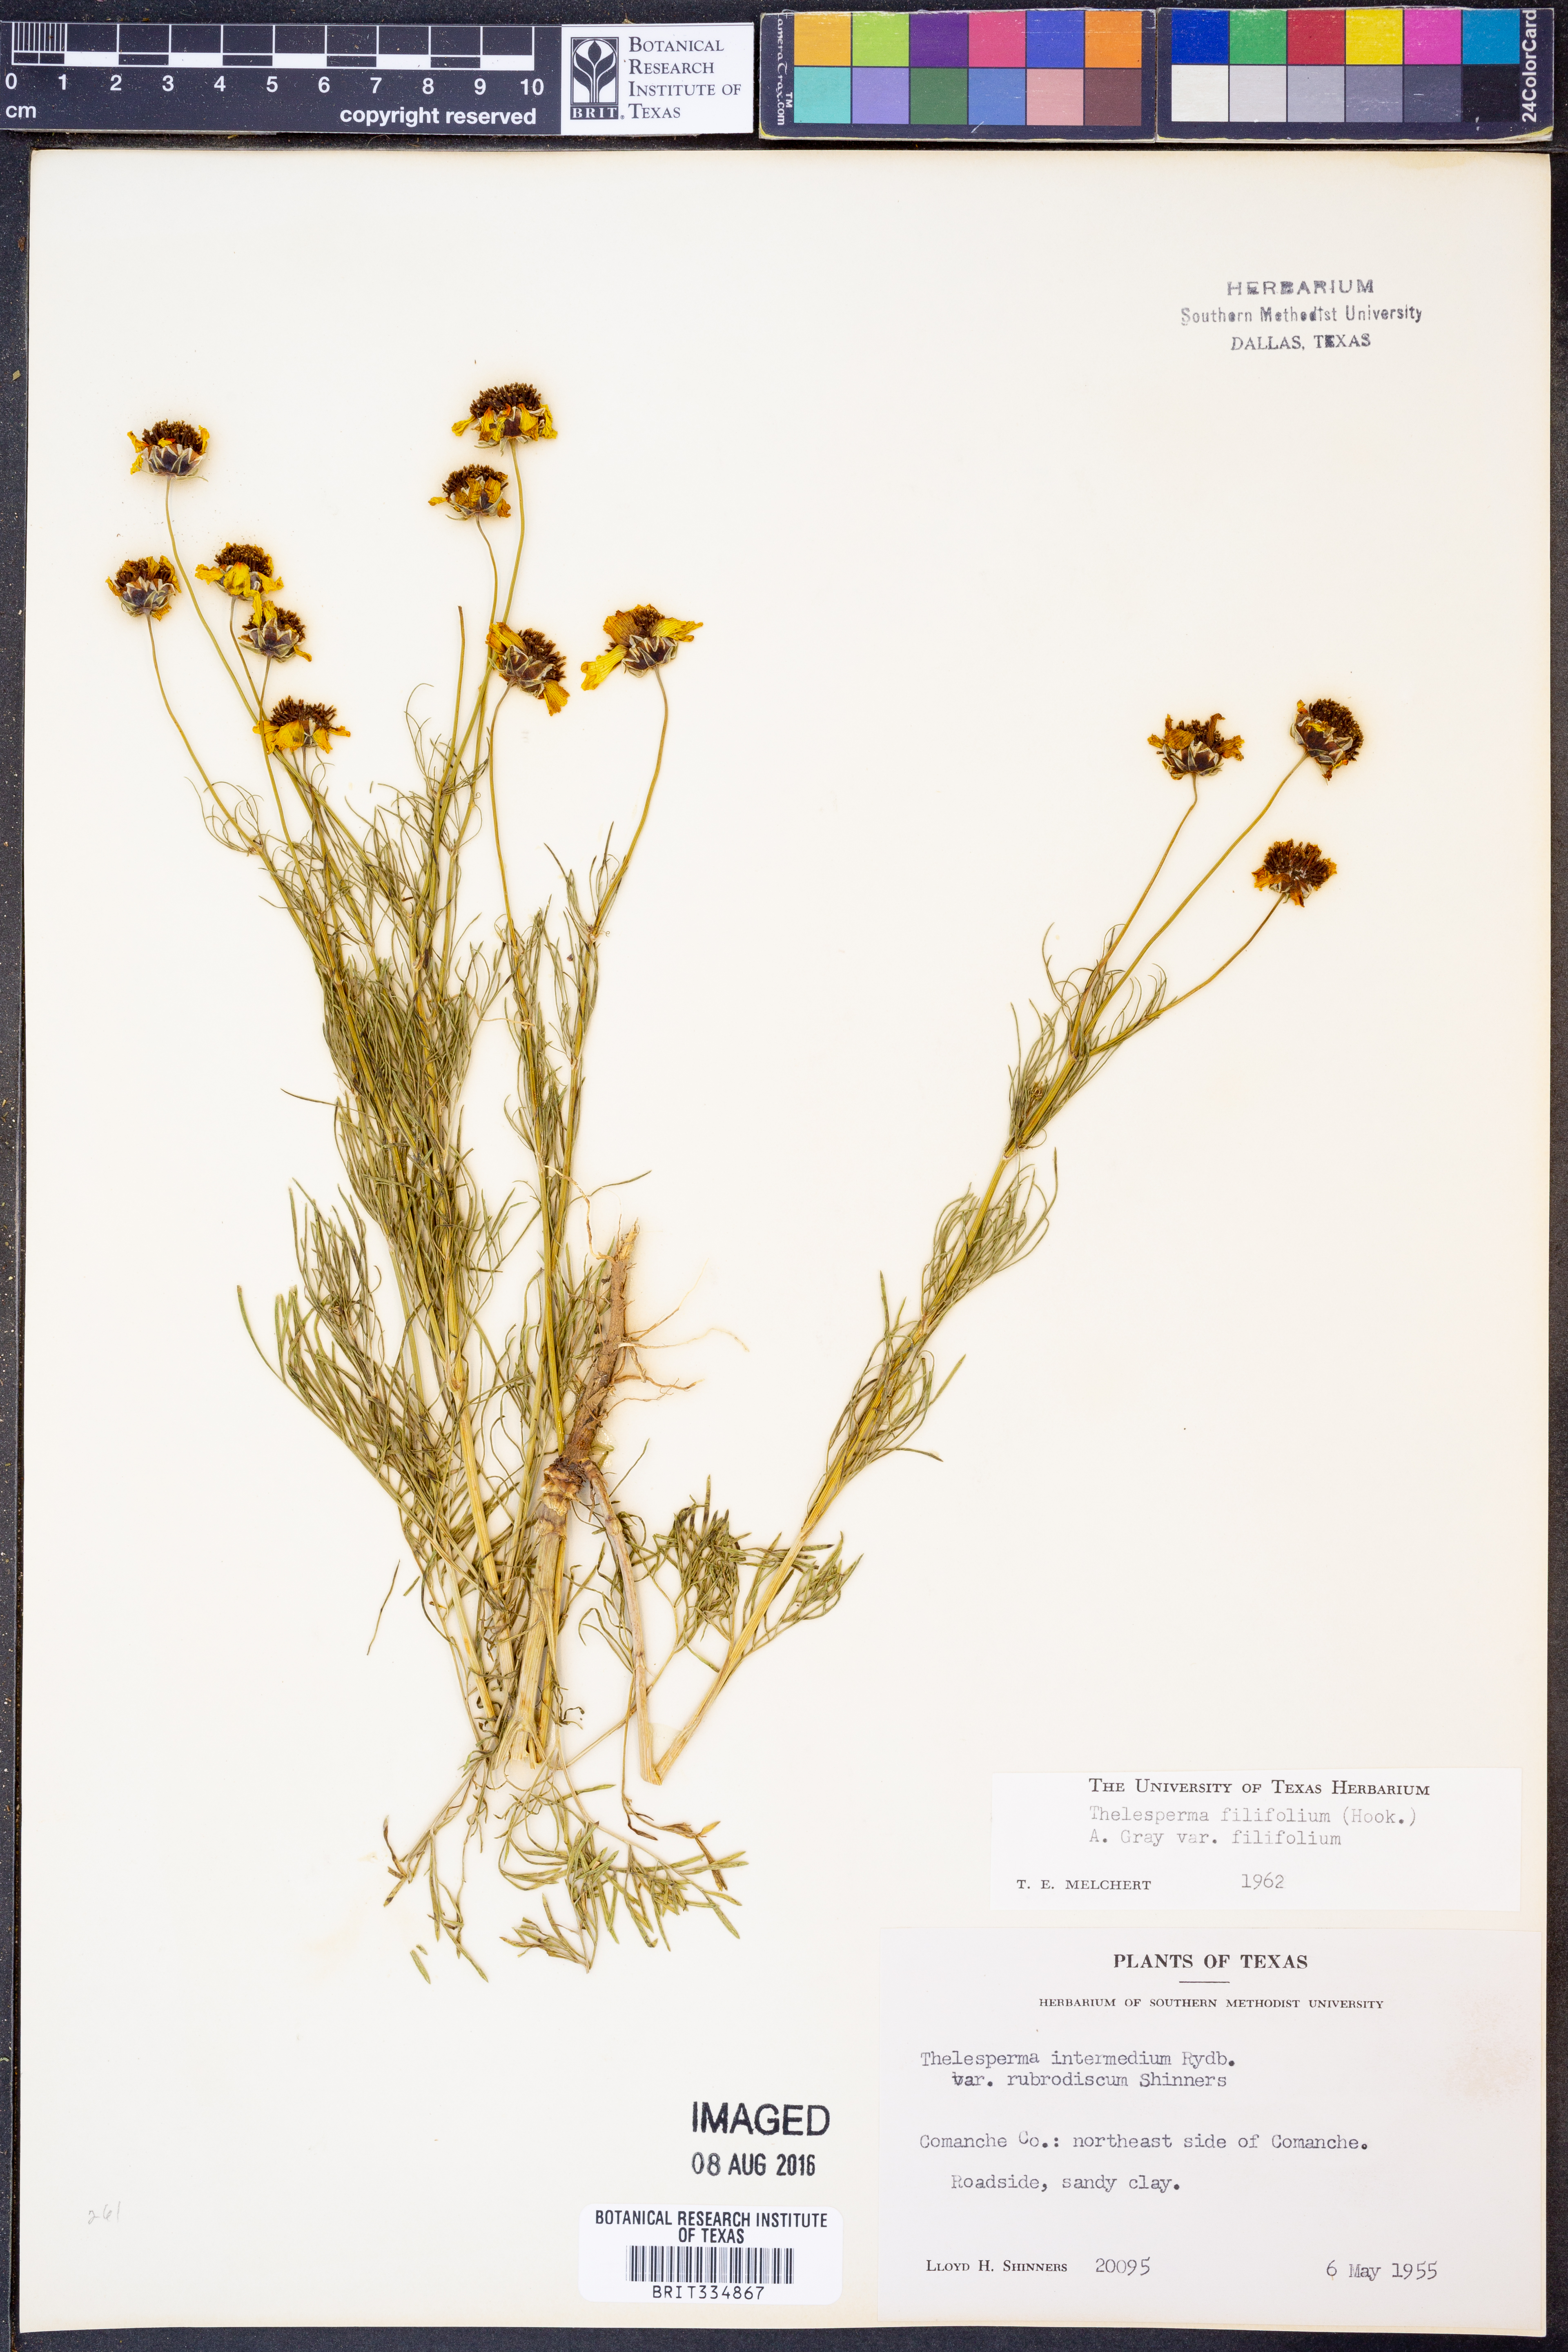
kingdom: Plantae
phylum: Tracheophyta
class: Magnoliopsida
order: Asterales
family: Asteraceae
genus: Thelesperma
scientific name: Thelesperma filifolium
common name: Stiff greenthread
